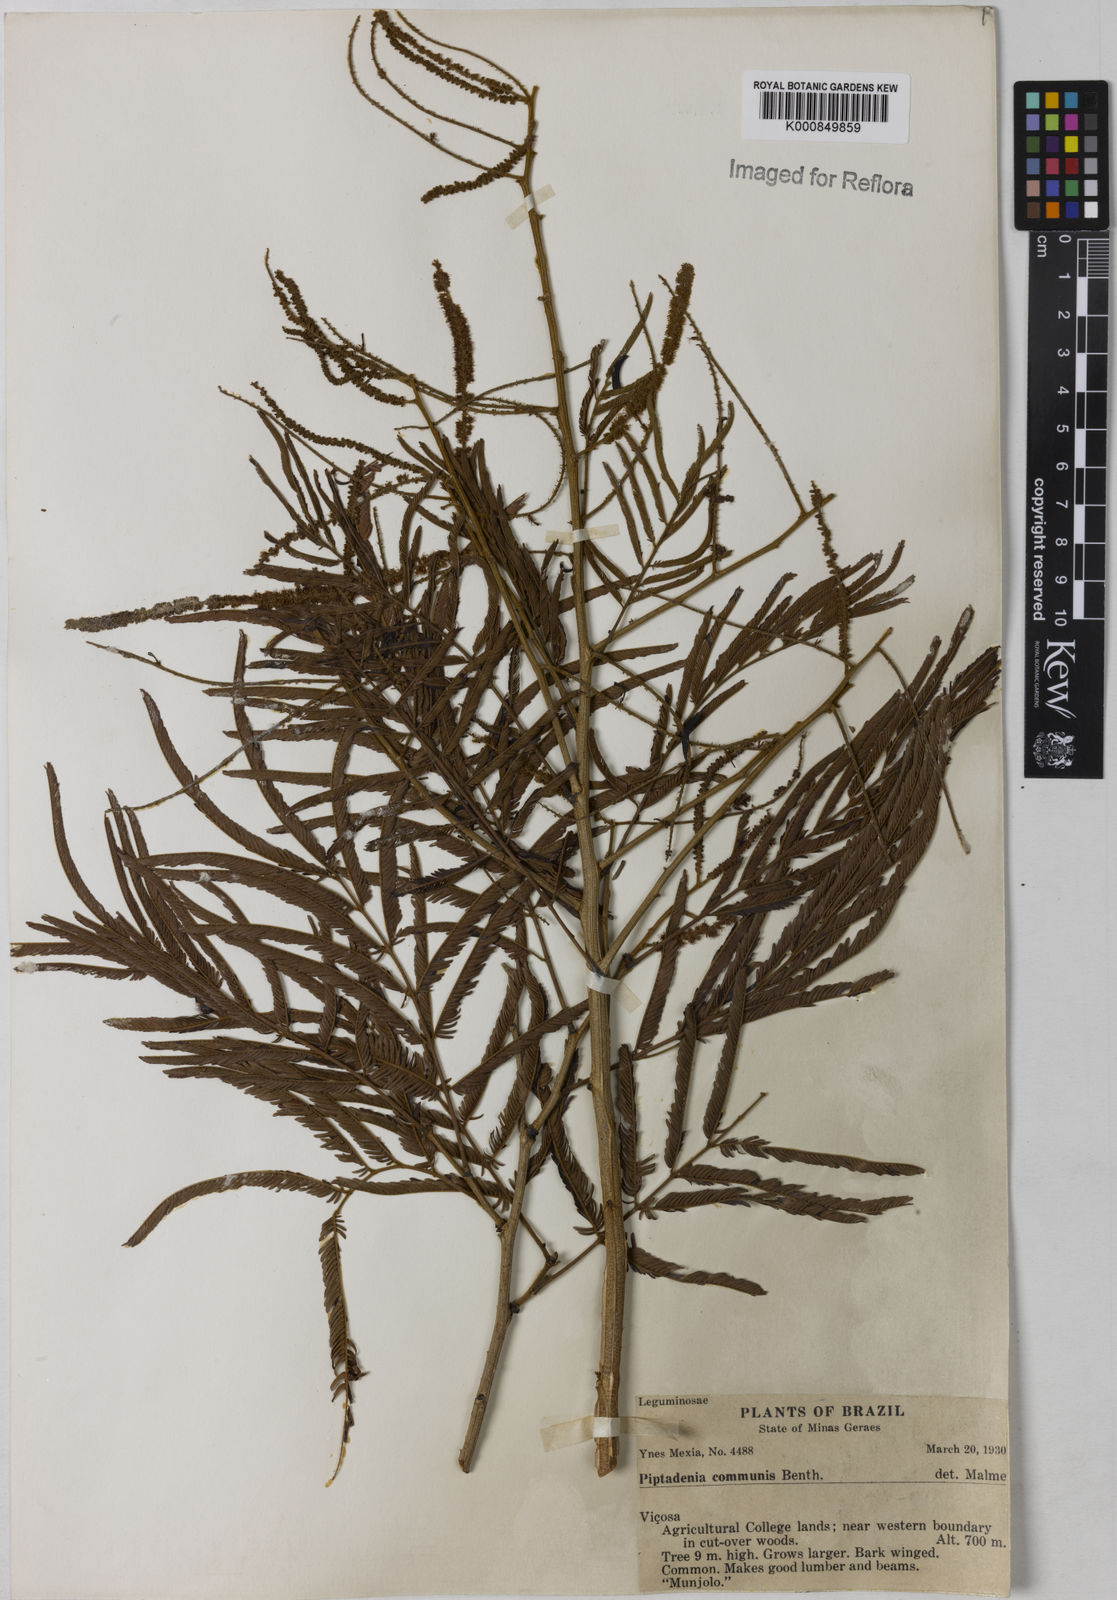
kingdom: Plantae
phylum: Tracheophyta
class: Magnoliopsida
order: Fabales
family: Fabaceae
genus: Piptadenia
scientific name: Piptadenia gonoacantha
